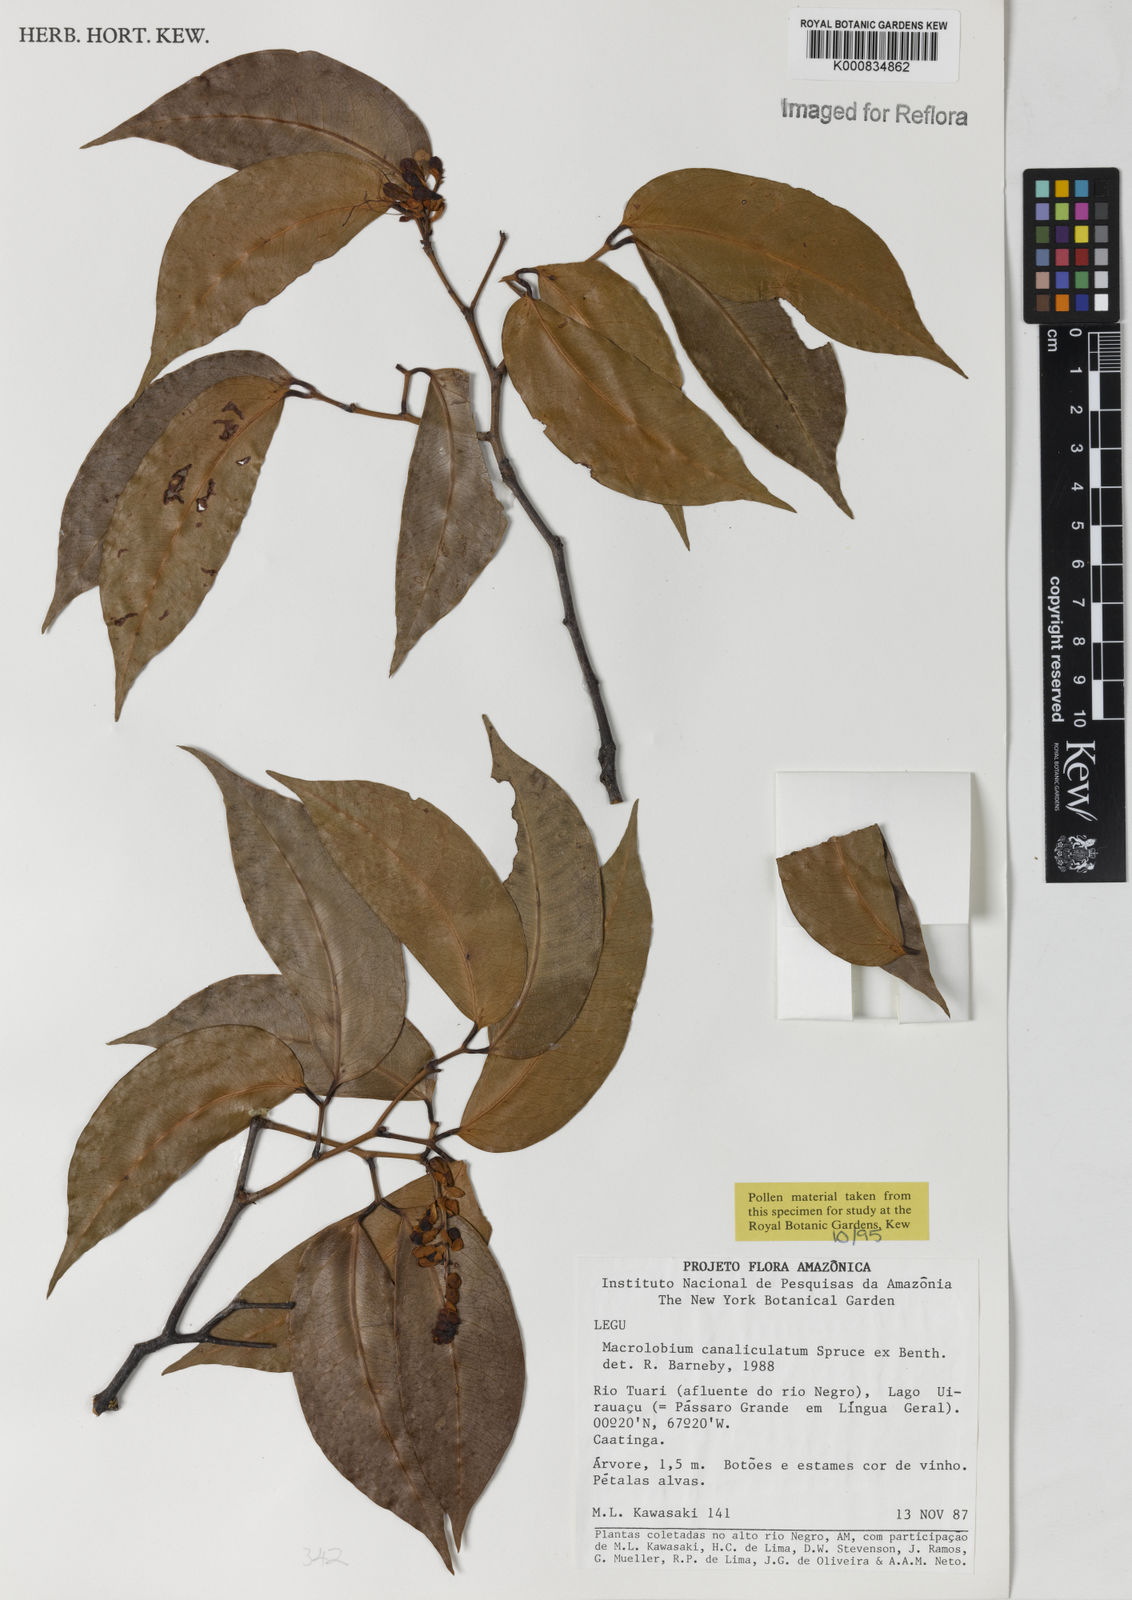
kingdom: Plantae
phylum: Tracheophyta
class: Magnoliopsida
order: Fabales
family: Fabaceae
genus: Macrolobium
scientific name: Macrolobium
